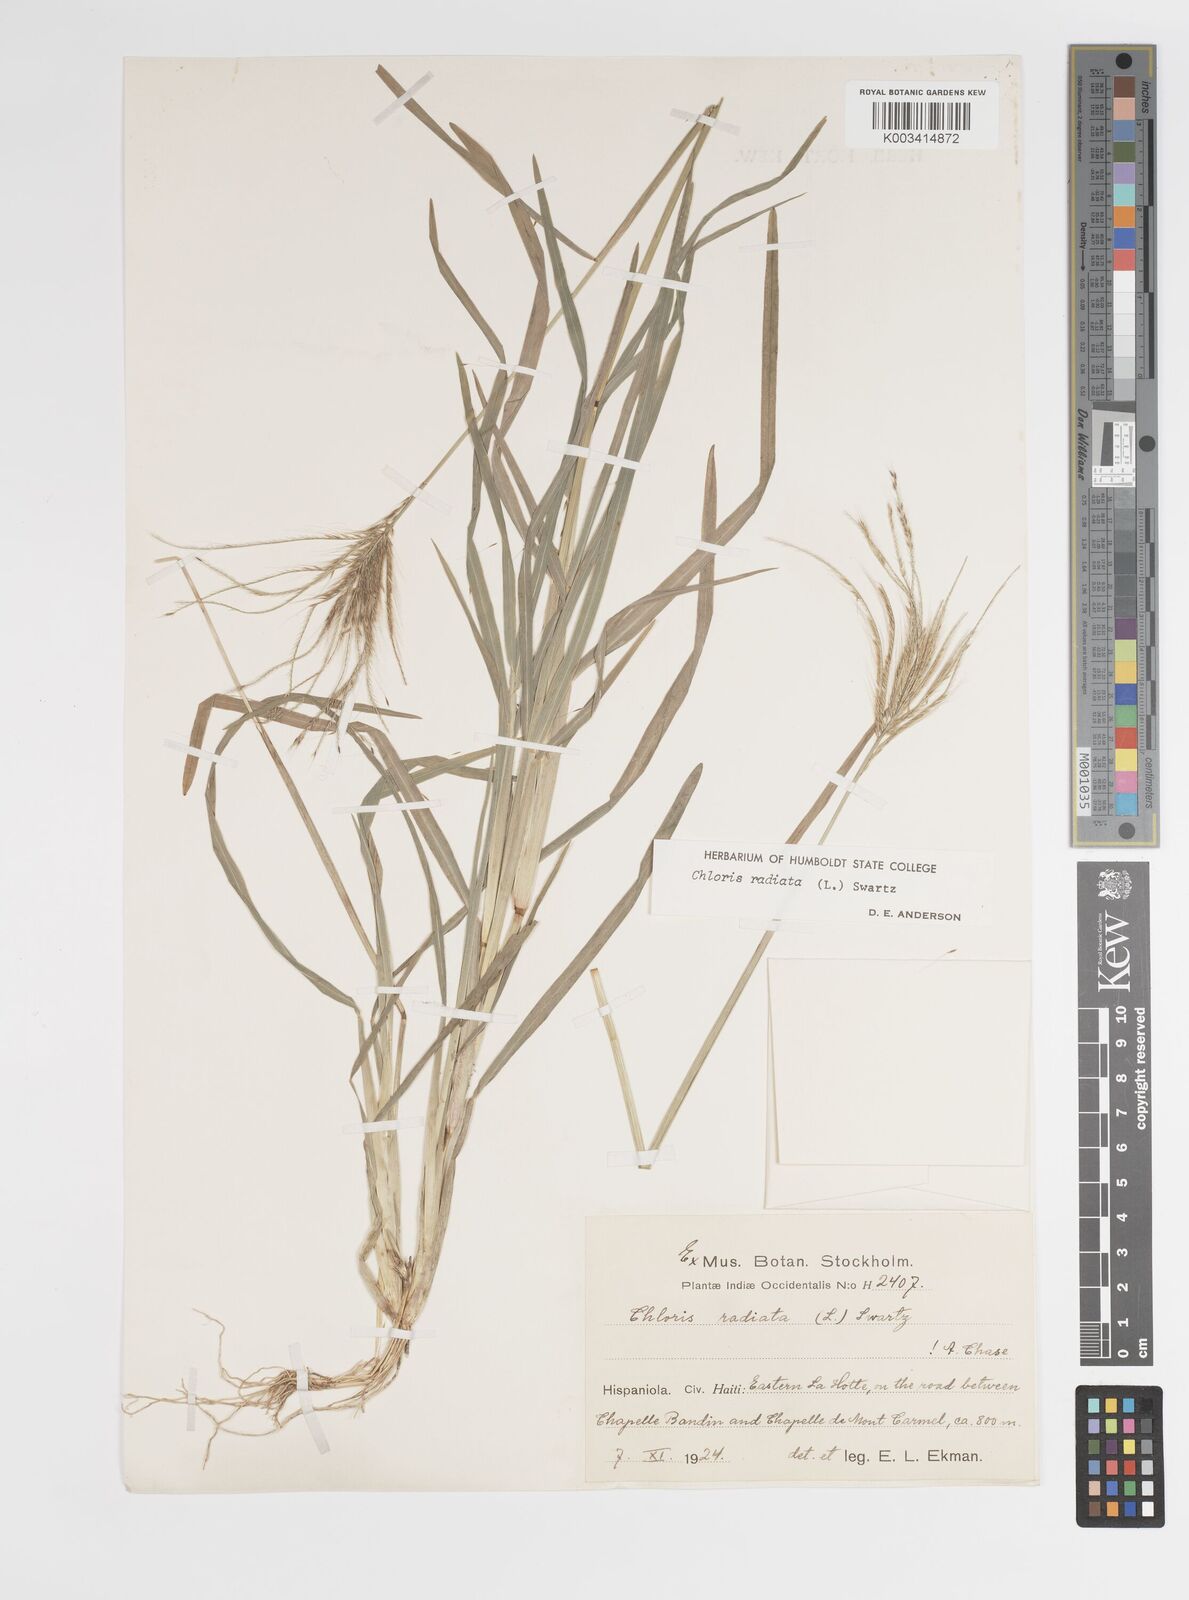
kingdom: Plantae
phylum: Tracheophyta
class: Liliopsida
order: Poales
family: Poaceae
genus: Chloris
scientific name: Chloris radiata
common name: Radiate fingergrass
